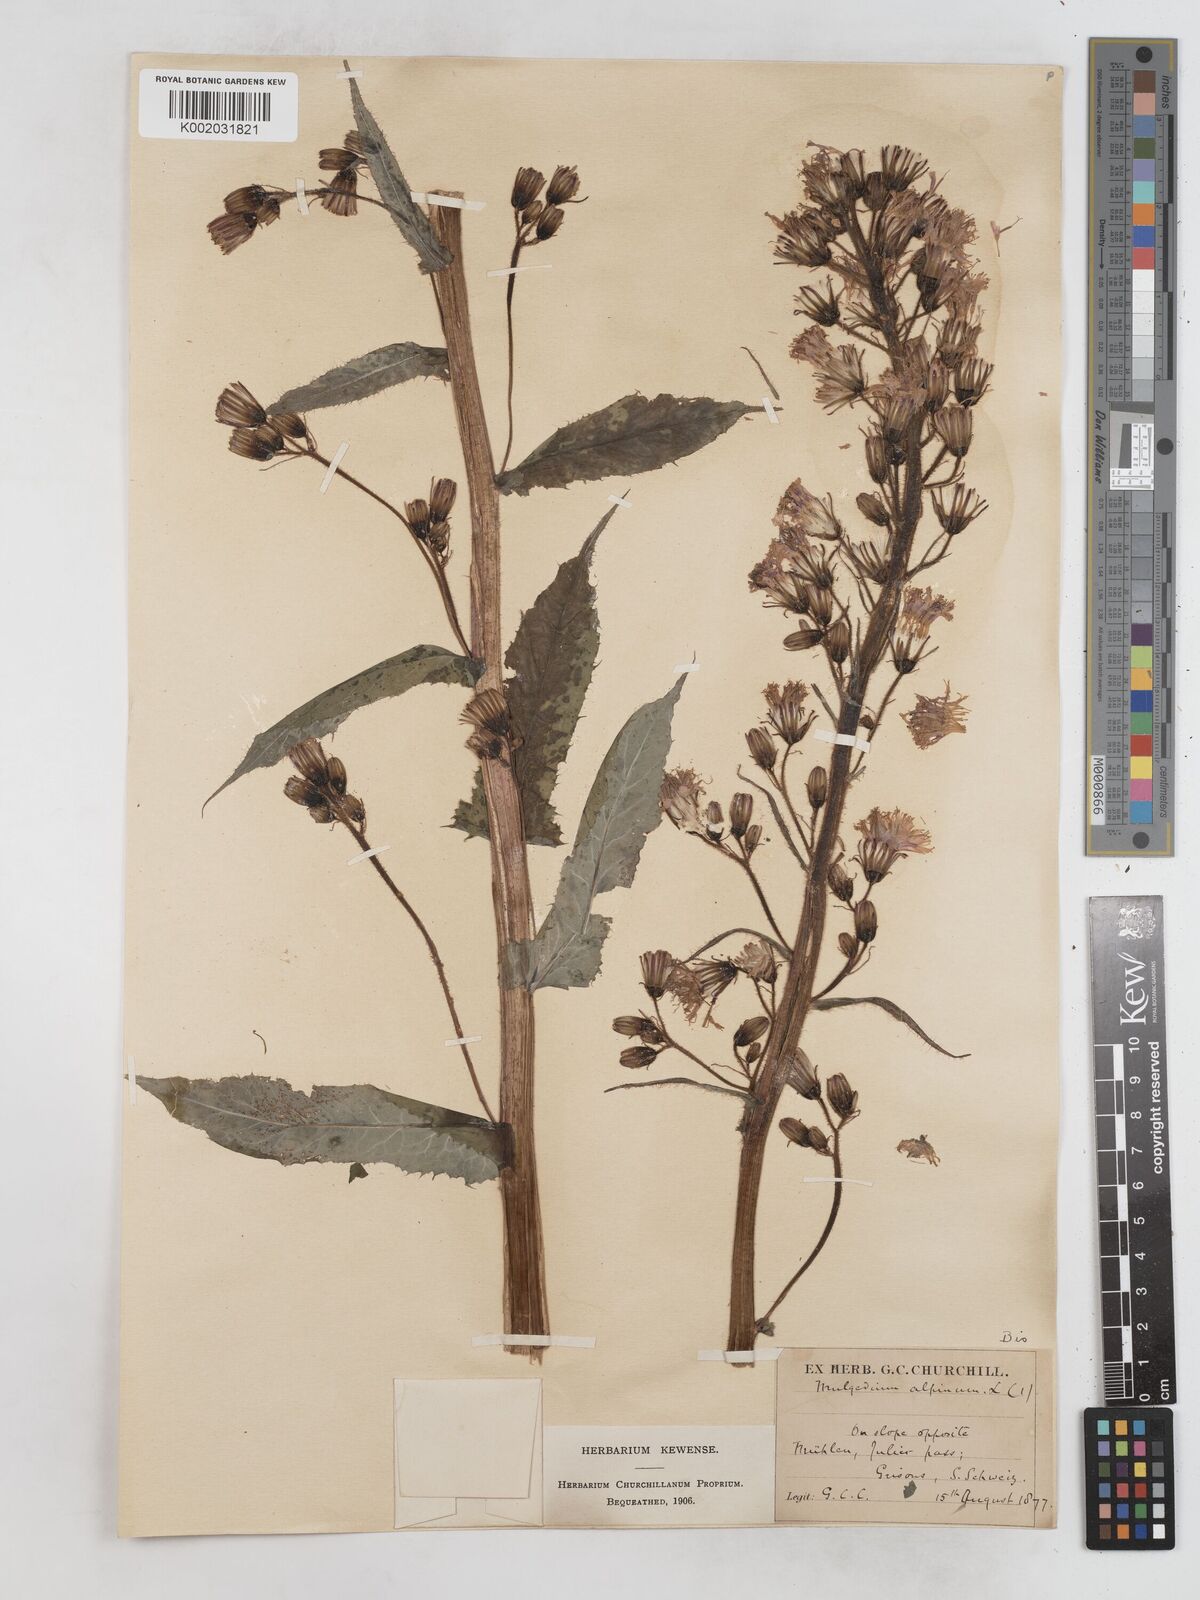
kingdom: Plantae
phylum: Tracheophyta
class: Magnoliopsida
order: Asterales
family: Asteraceae
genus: Cicerbita
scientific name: Cicerbita alpina
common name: Alpine blue-sow-thistle
